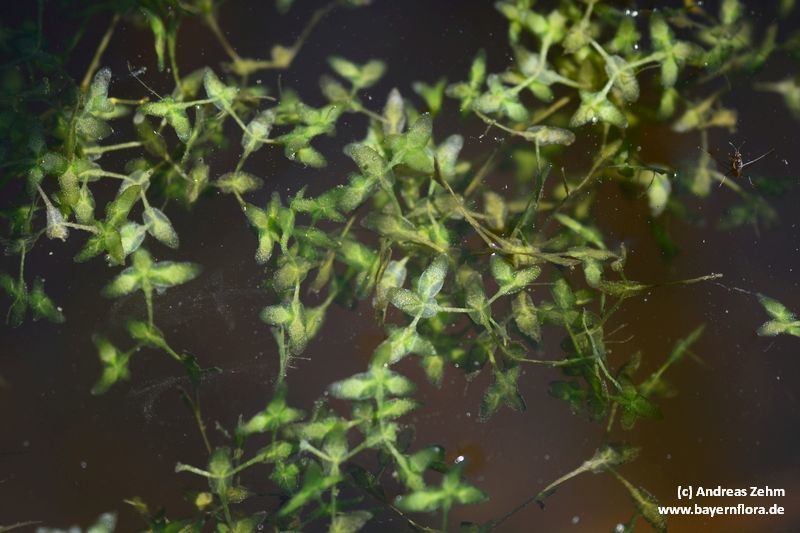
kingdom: Plantae
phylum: Tracheophyta
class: Liliopsida
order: Alismatales
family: Araceae
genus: Lemna
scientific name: Lemna trisulca
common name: Ivy-leaved duckweed
